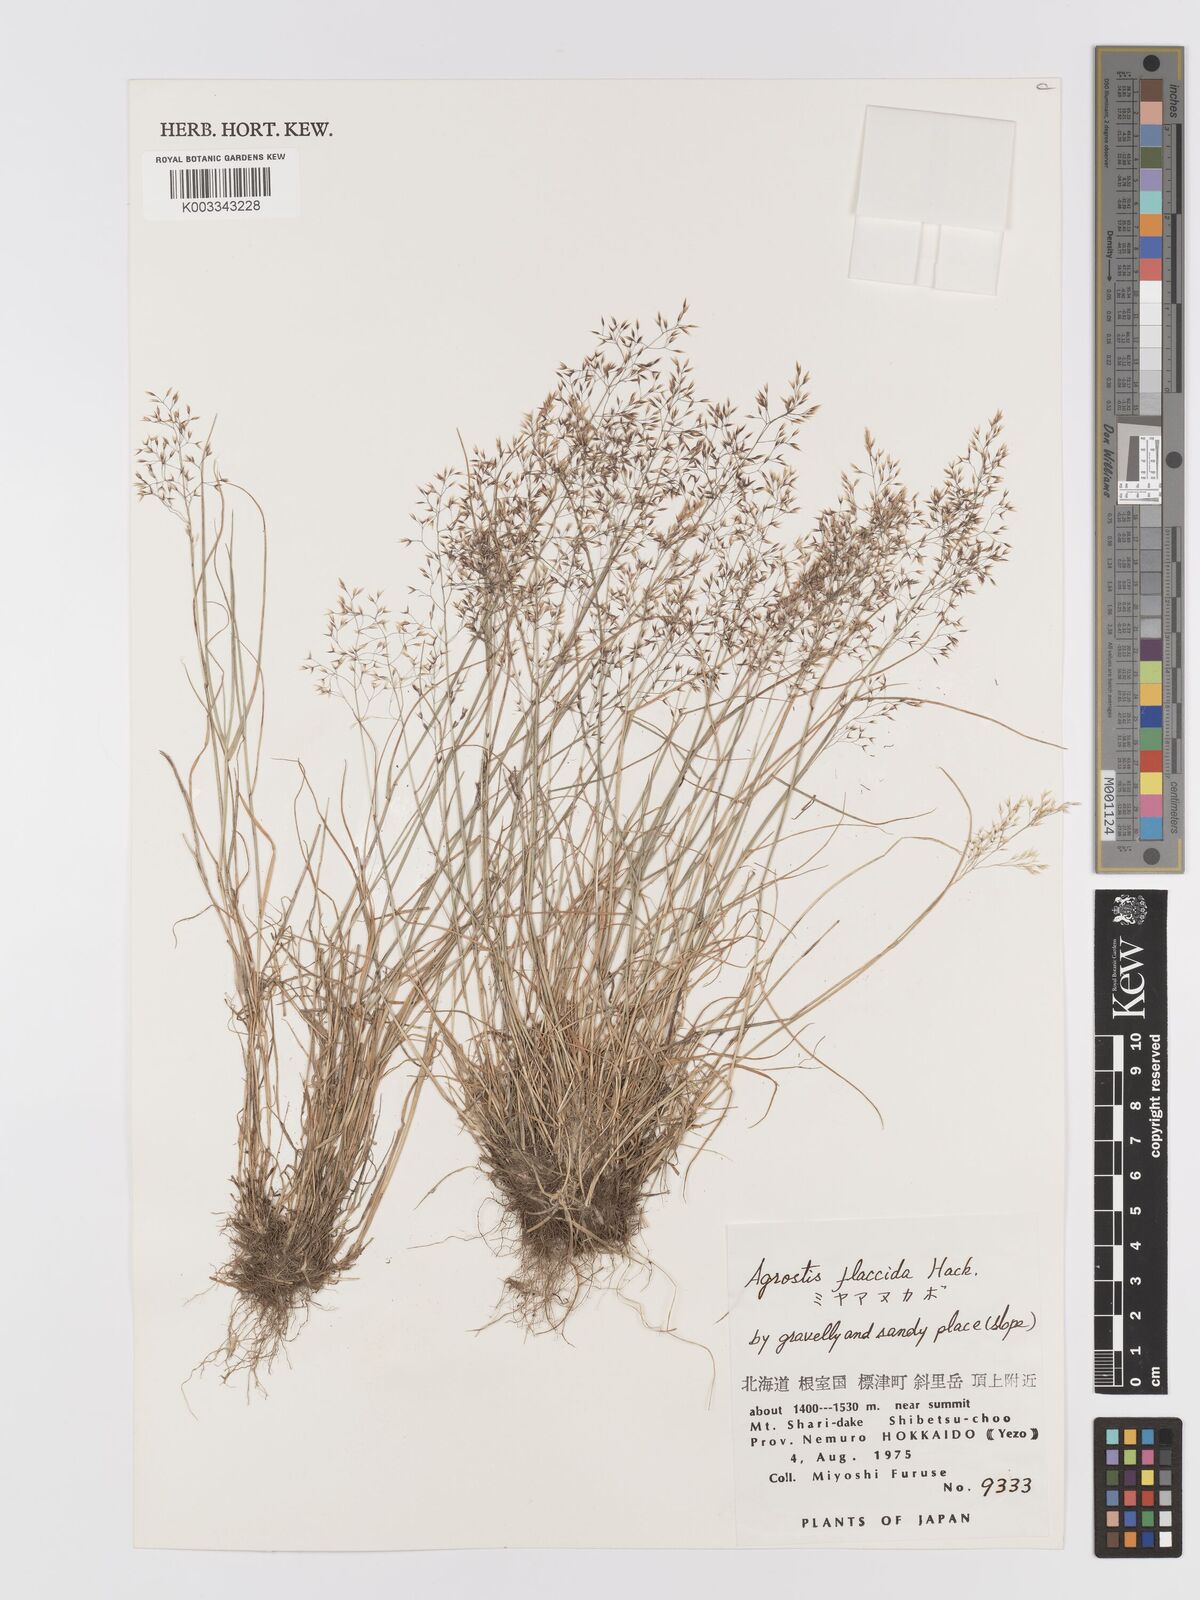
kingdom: Plantae
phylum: Tracheophyta
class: Liliopsida
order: Poales
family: Poaceae
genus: Agrostis
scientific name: Agrostis flaccida
